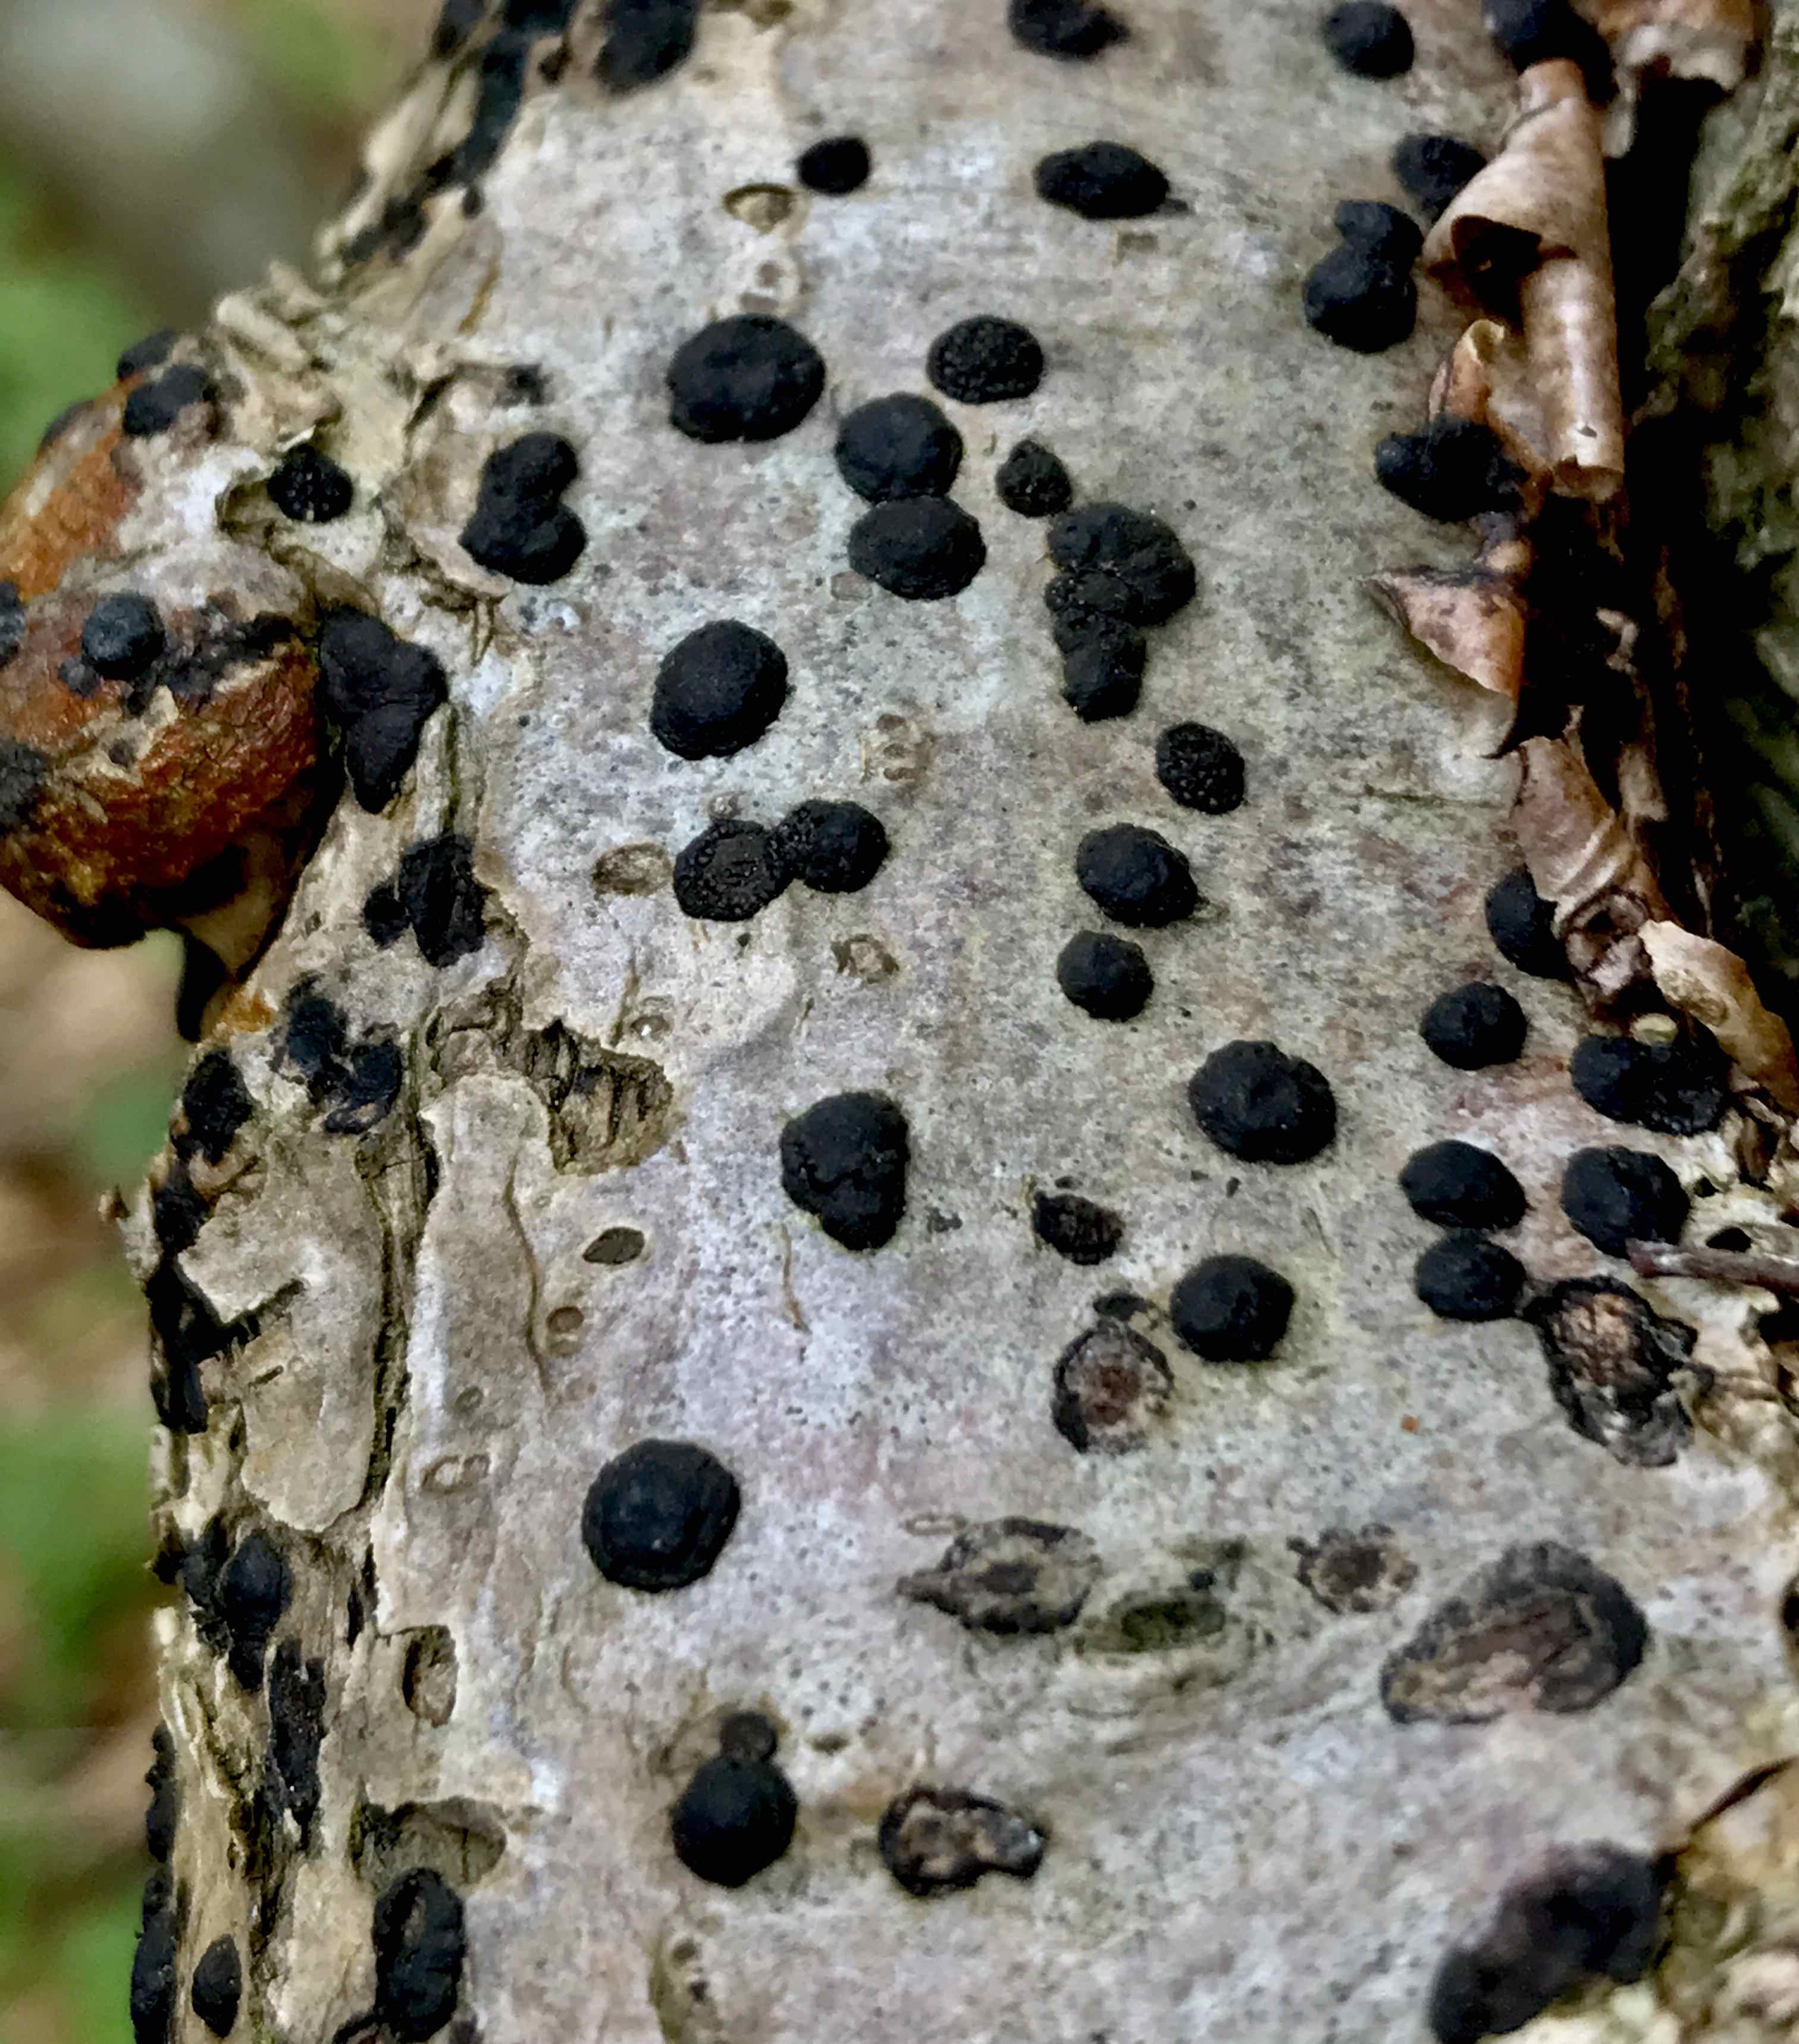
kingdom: Fungi
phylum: Ascomycota
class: Sordariomycetes
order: Xylariales
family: Hypoxylaceae
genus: Hypoxylon
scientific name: Hypoxylon fuscum
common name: kegleformet kulbær
